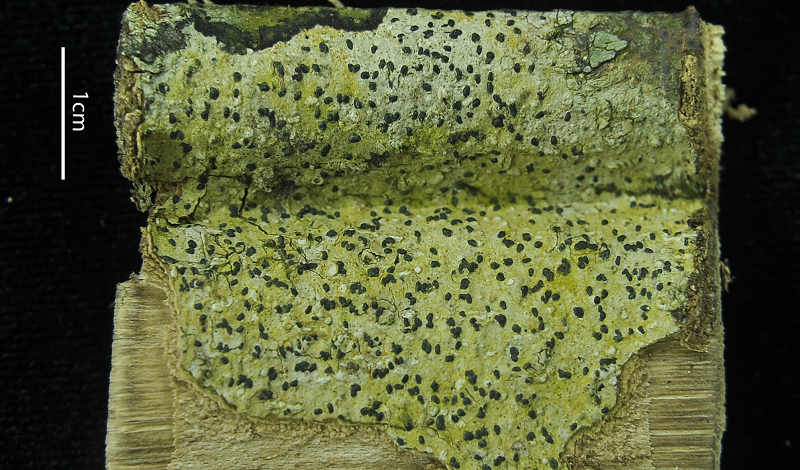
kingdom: Fungi
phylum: Ascomycota
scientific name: Ascomycota
